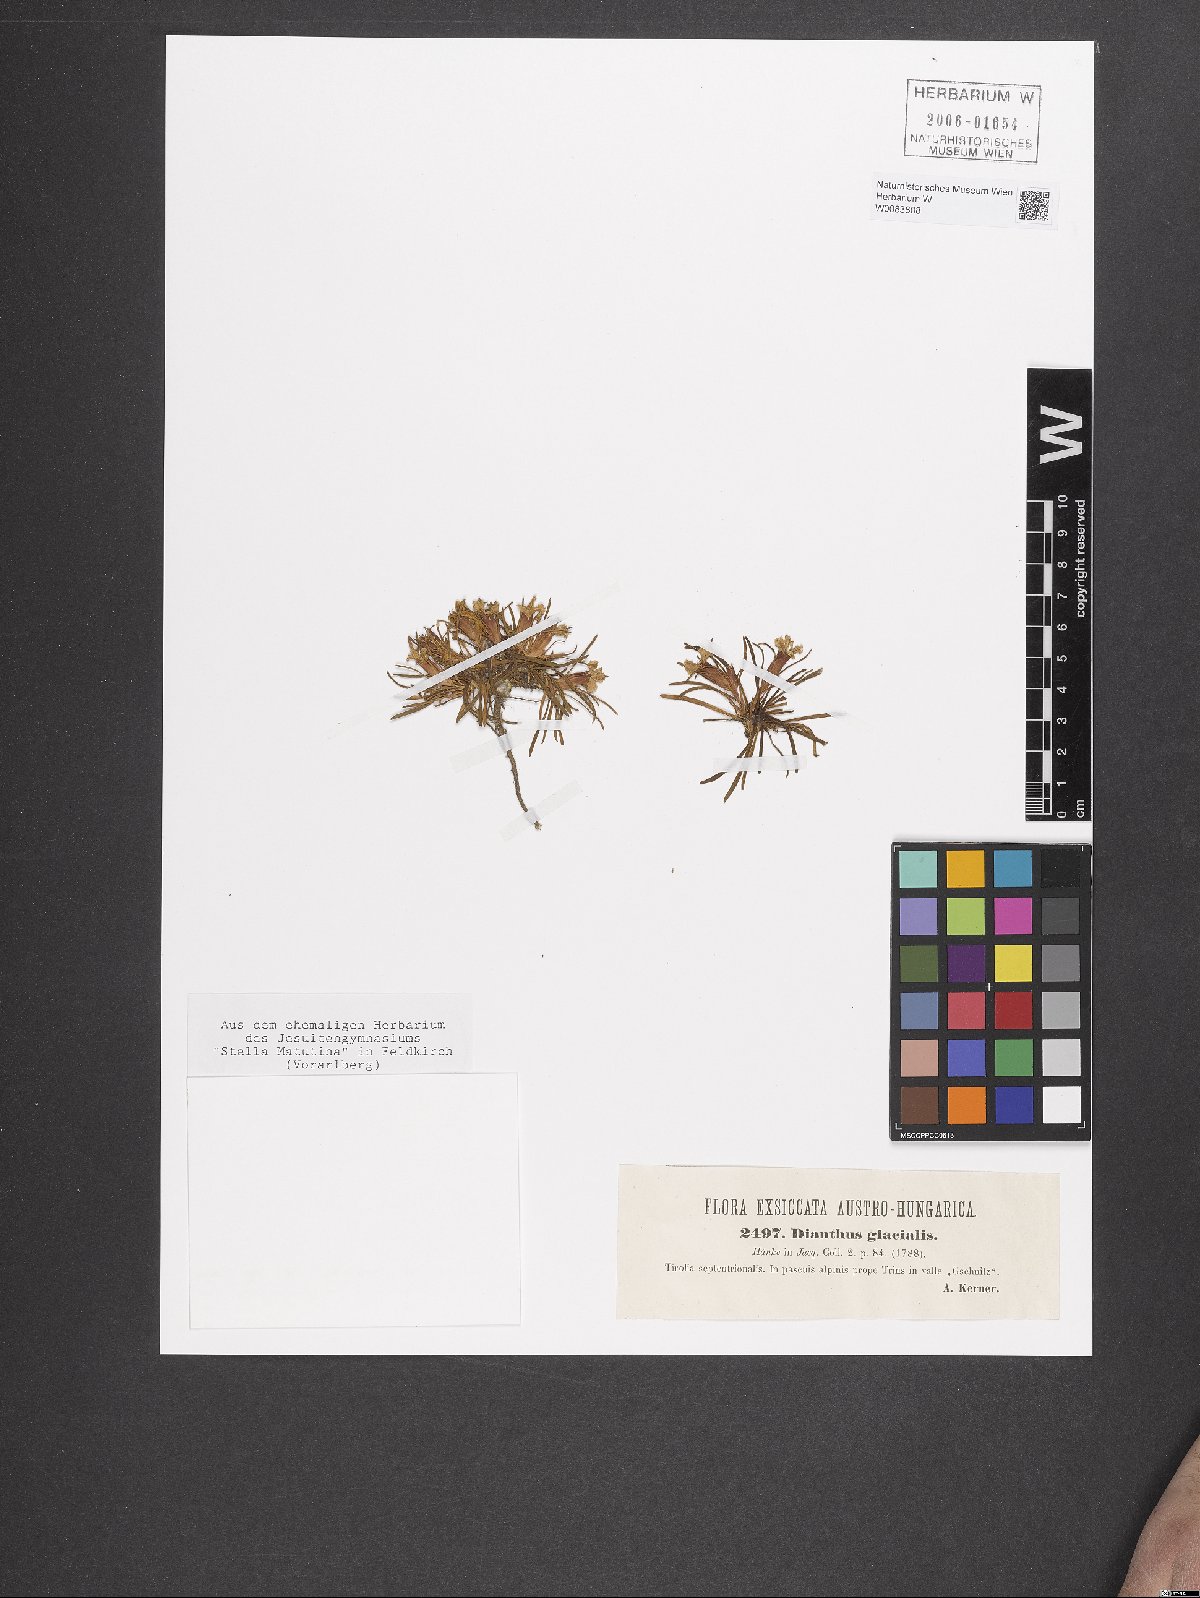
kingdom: Plantae
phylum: Tracheophyta
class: Magnoliopsida
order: Caryophyllales
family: Caryophyllaceae
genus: Dianthus
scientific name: Dianthus glacialis
